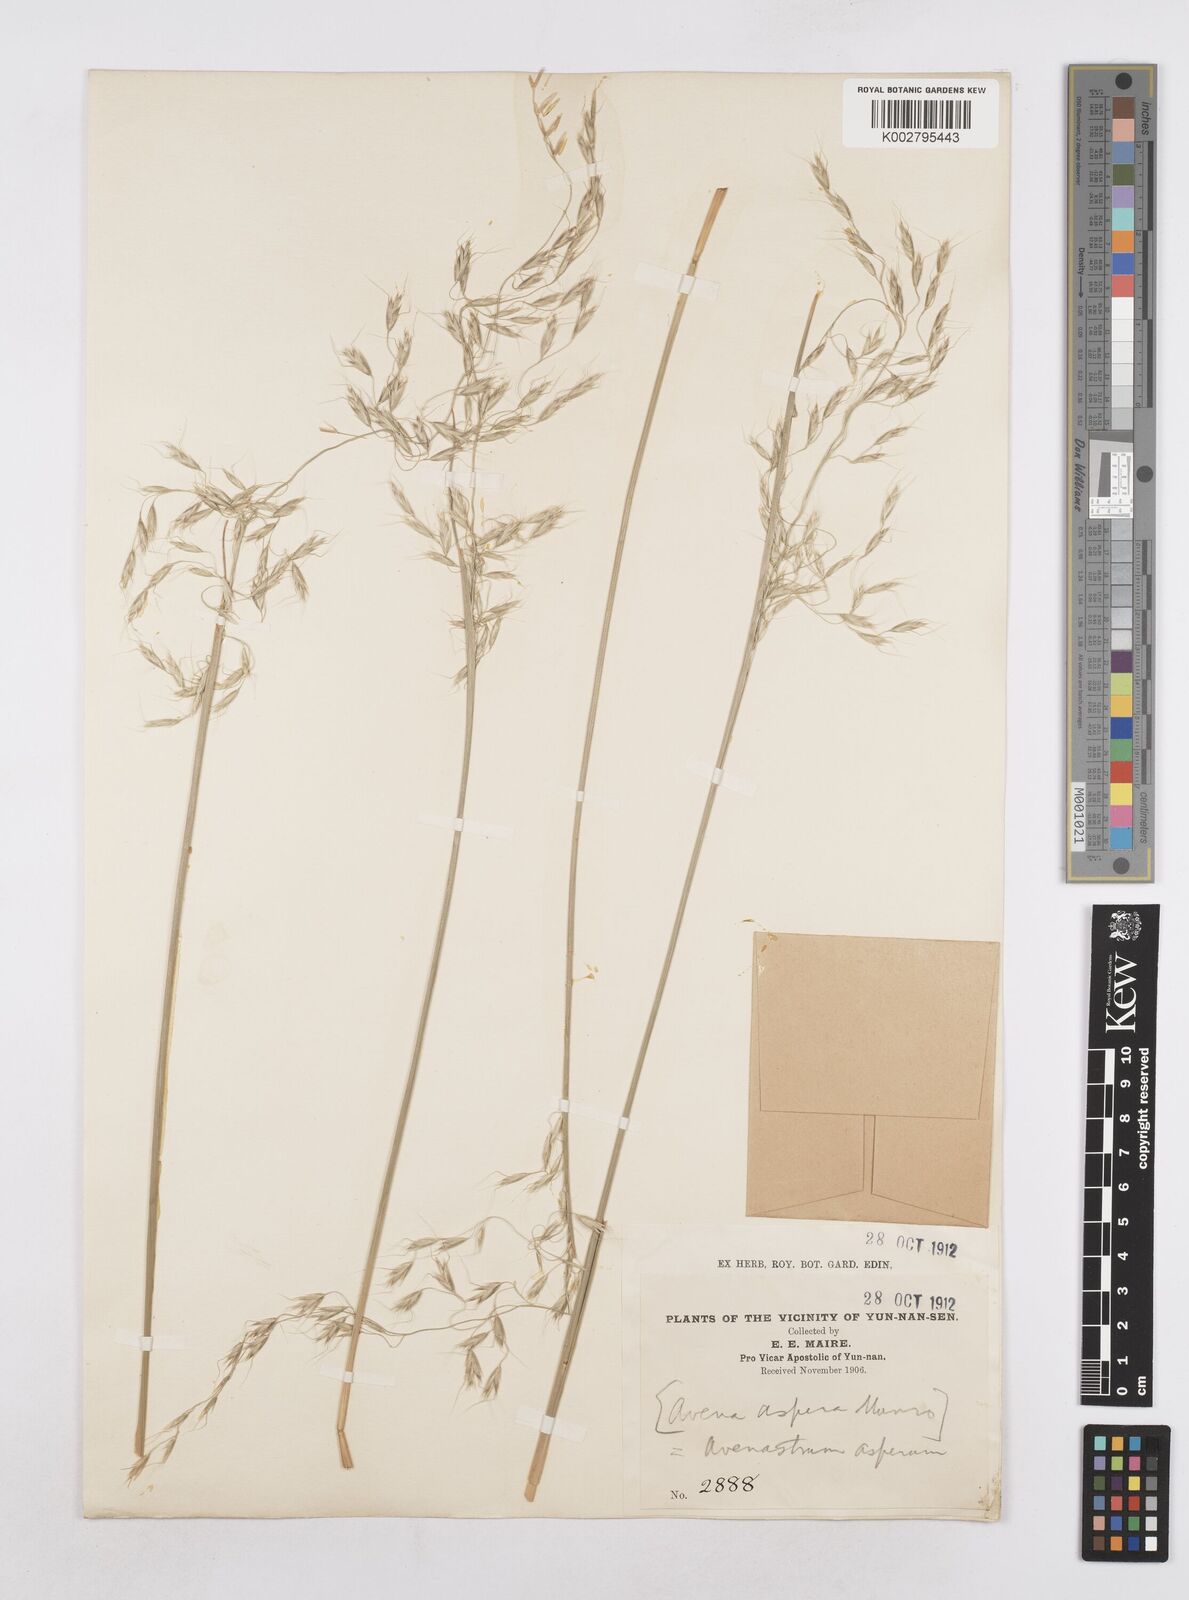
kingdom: Plantae
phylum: Tracheophyta
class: Liliopsida
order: Poales
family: Poaceae
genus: Trisetopsis
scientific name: Trisetopsis junghuhnii
